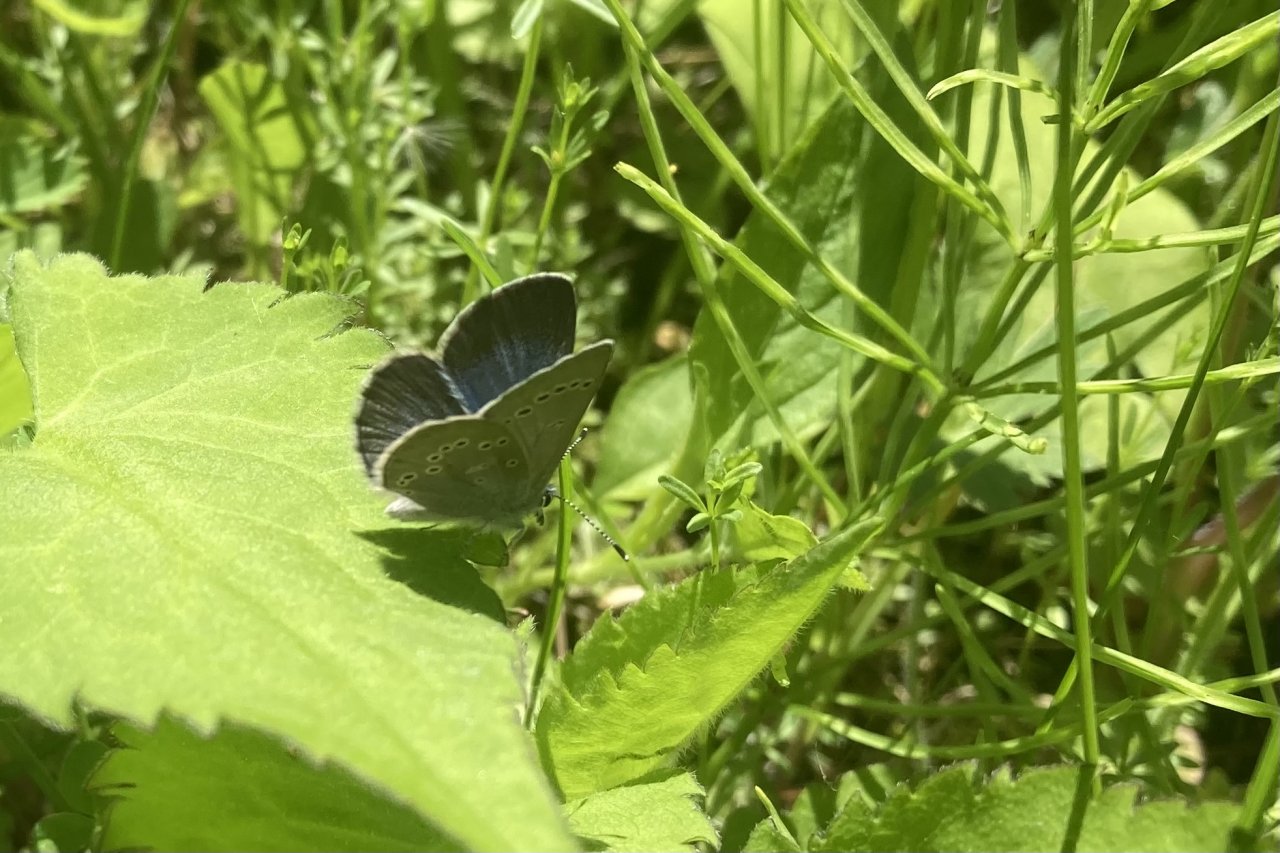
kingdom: Animalia
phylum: Arthropoda
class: Insecta
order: Lepidoptera
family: Lycaenidae
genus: Glaucopsyche
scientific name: Glaucopsyche lygdamus
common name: Silvery Blue
